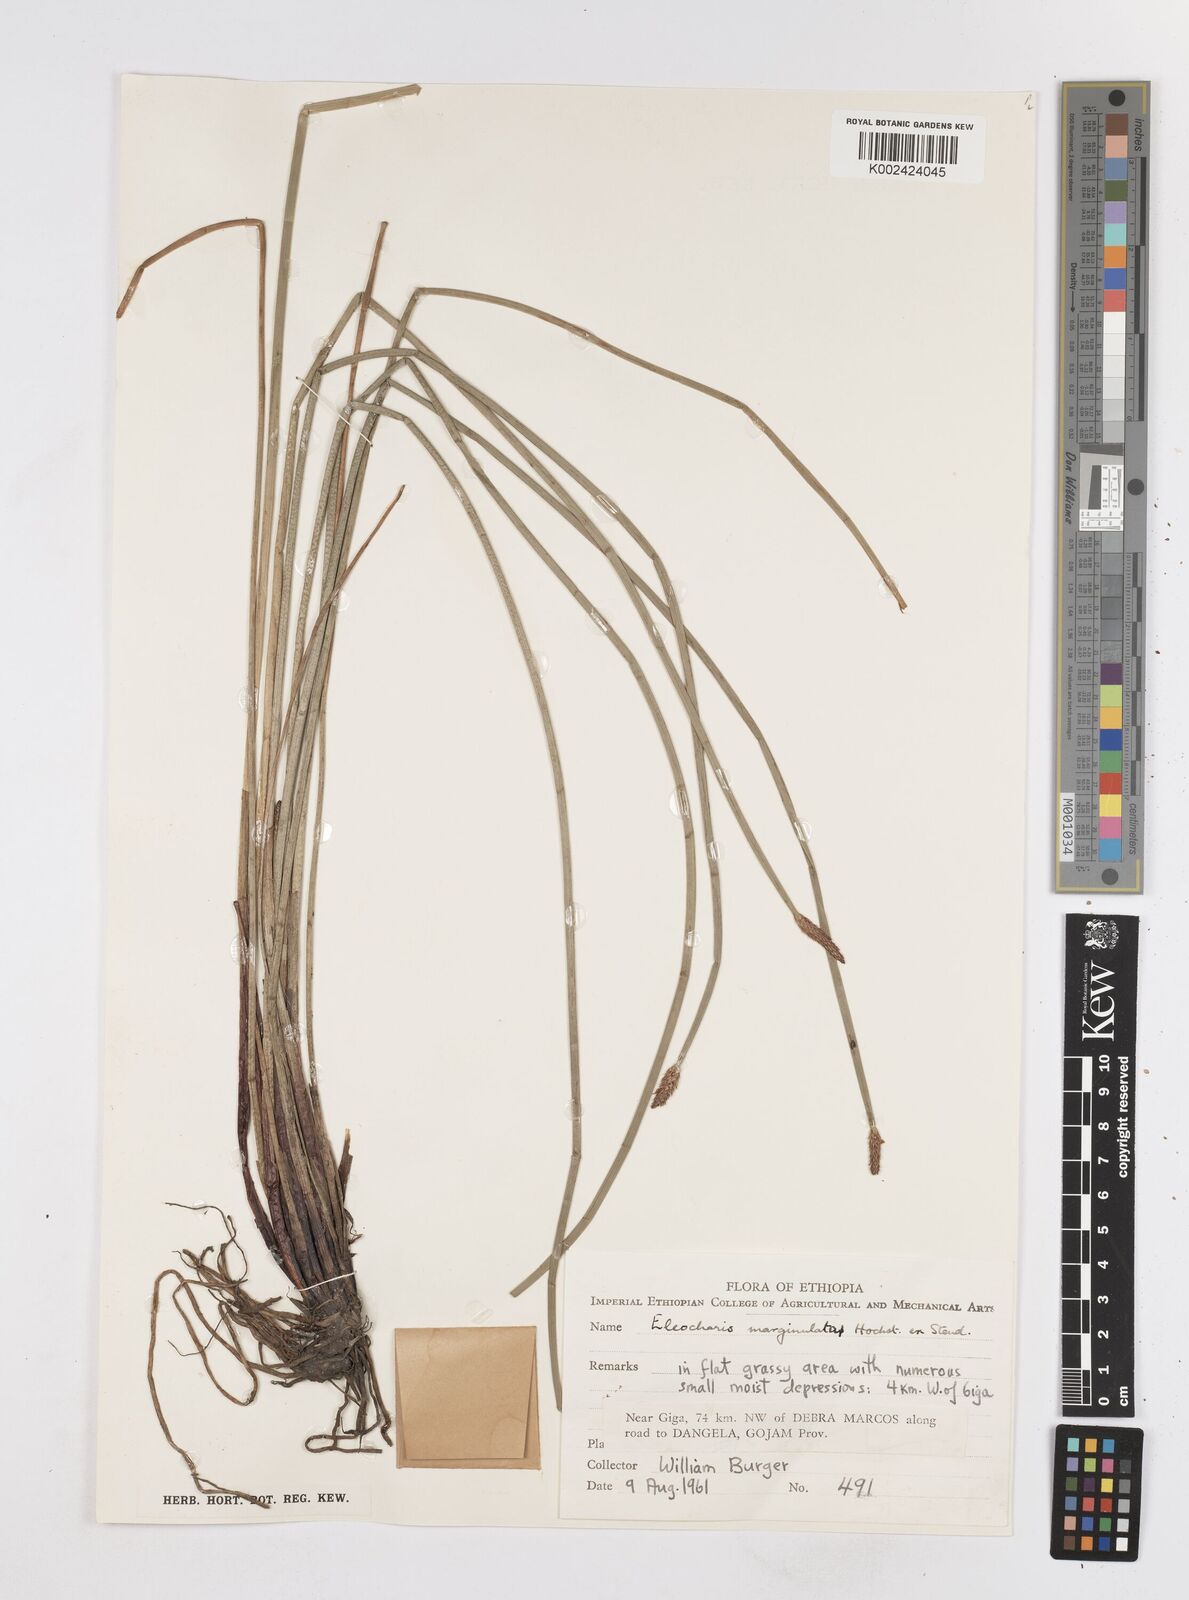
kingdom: Plantae
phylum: Tracheophyta
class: Liliopsida
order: Poales
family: Cyperaceae
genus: Eleocharis
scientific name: Eleocharis marginulata
